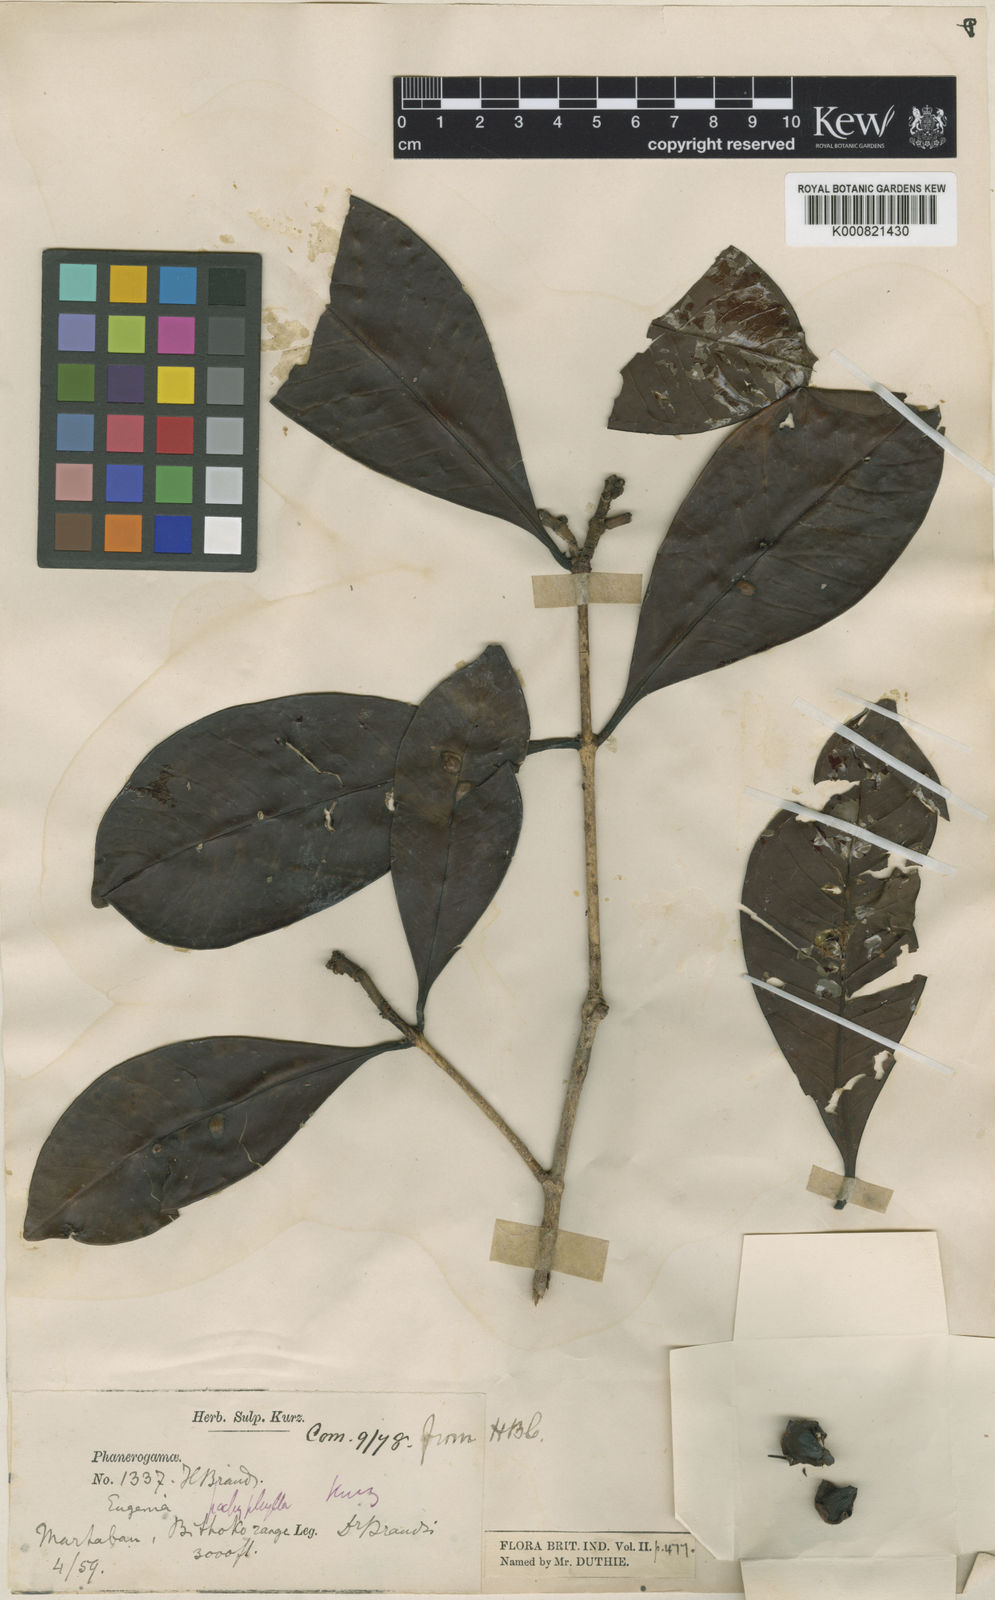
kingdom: Plantae
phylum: Tracheophyta
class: Magnoliopsida
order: Myrtales
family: Myrtaceae
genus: Syzygium
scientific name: Syzygium pachyanthum
